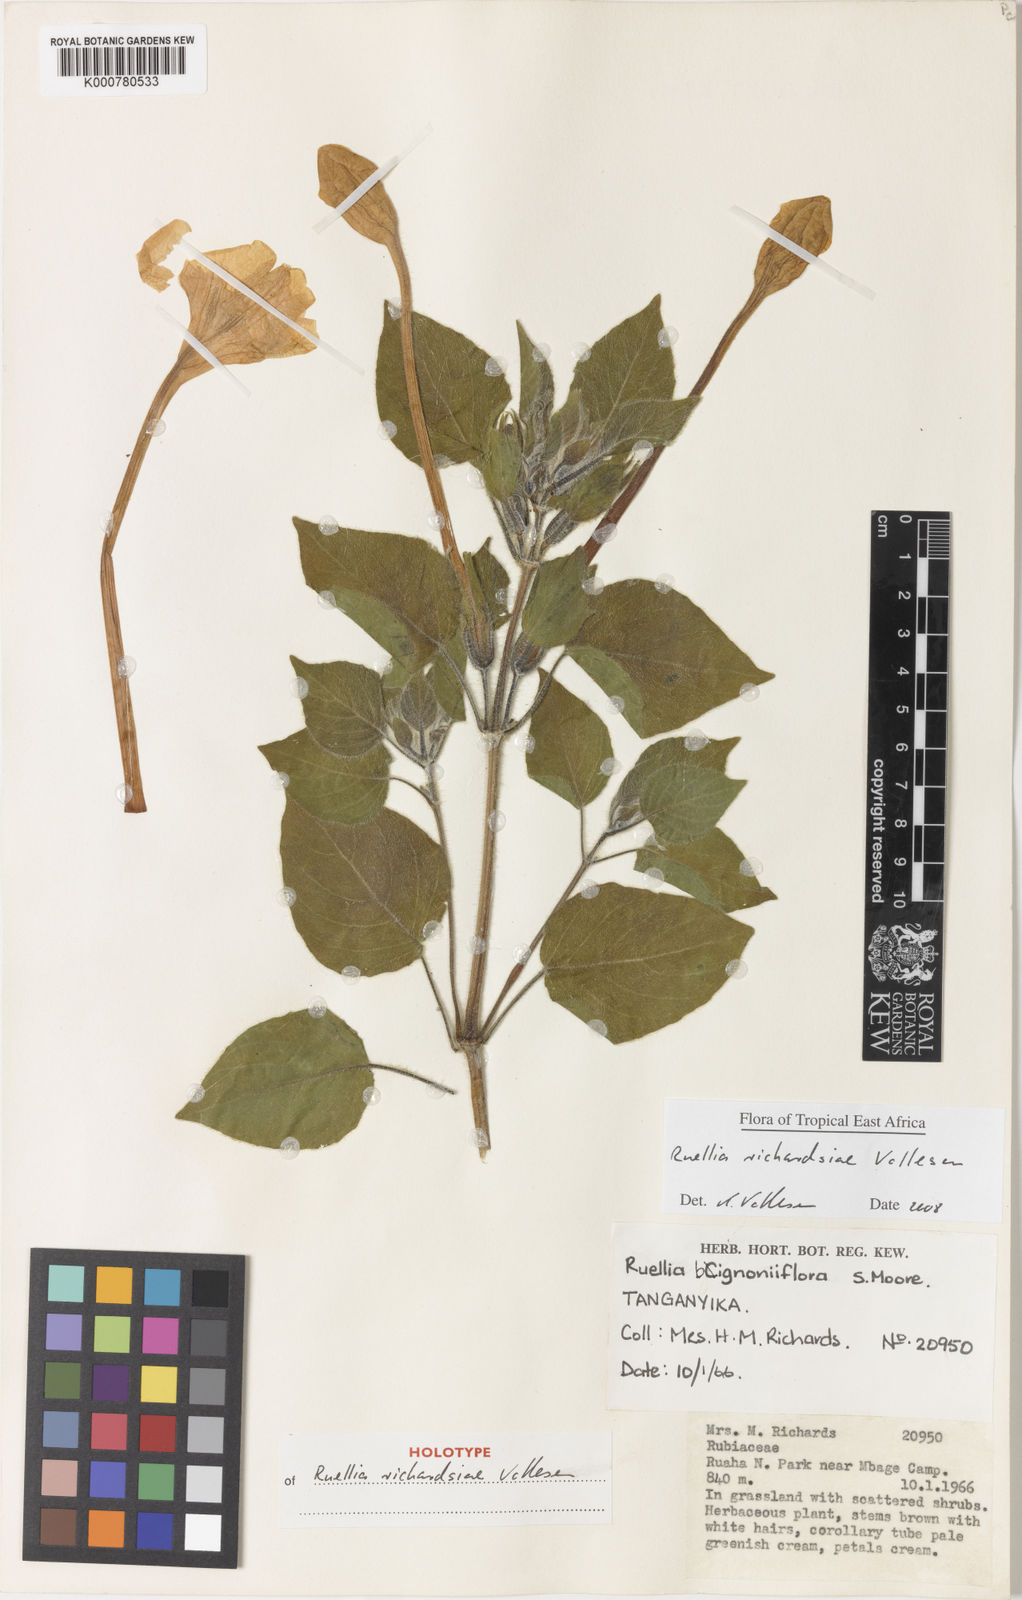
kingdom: Plantae
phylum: Tracheophyta
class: Magnoliopsida
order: Lamiales
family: Acanthaceae
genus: Ruellia
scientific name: Ruellia richardsiae
